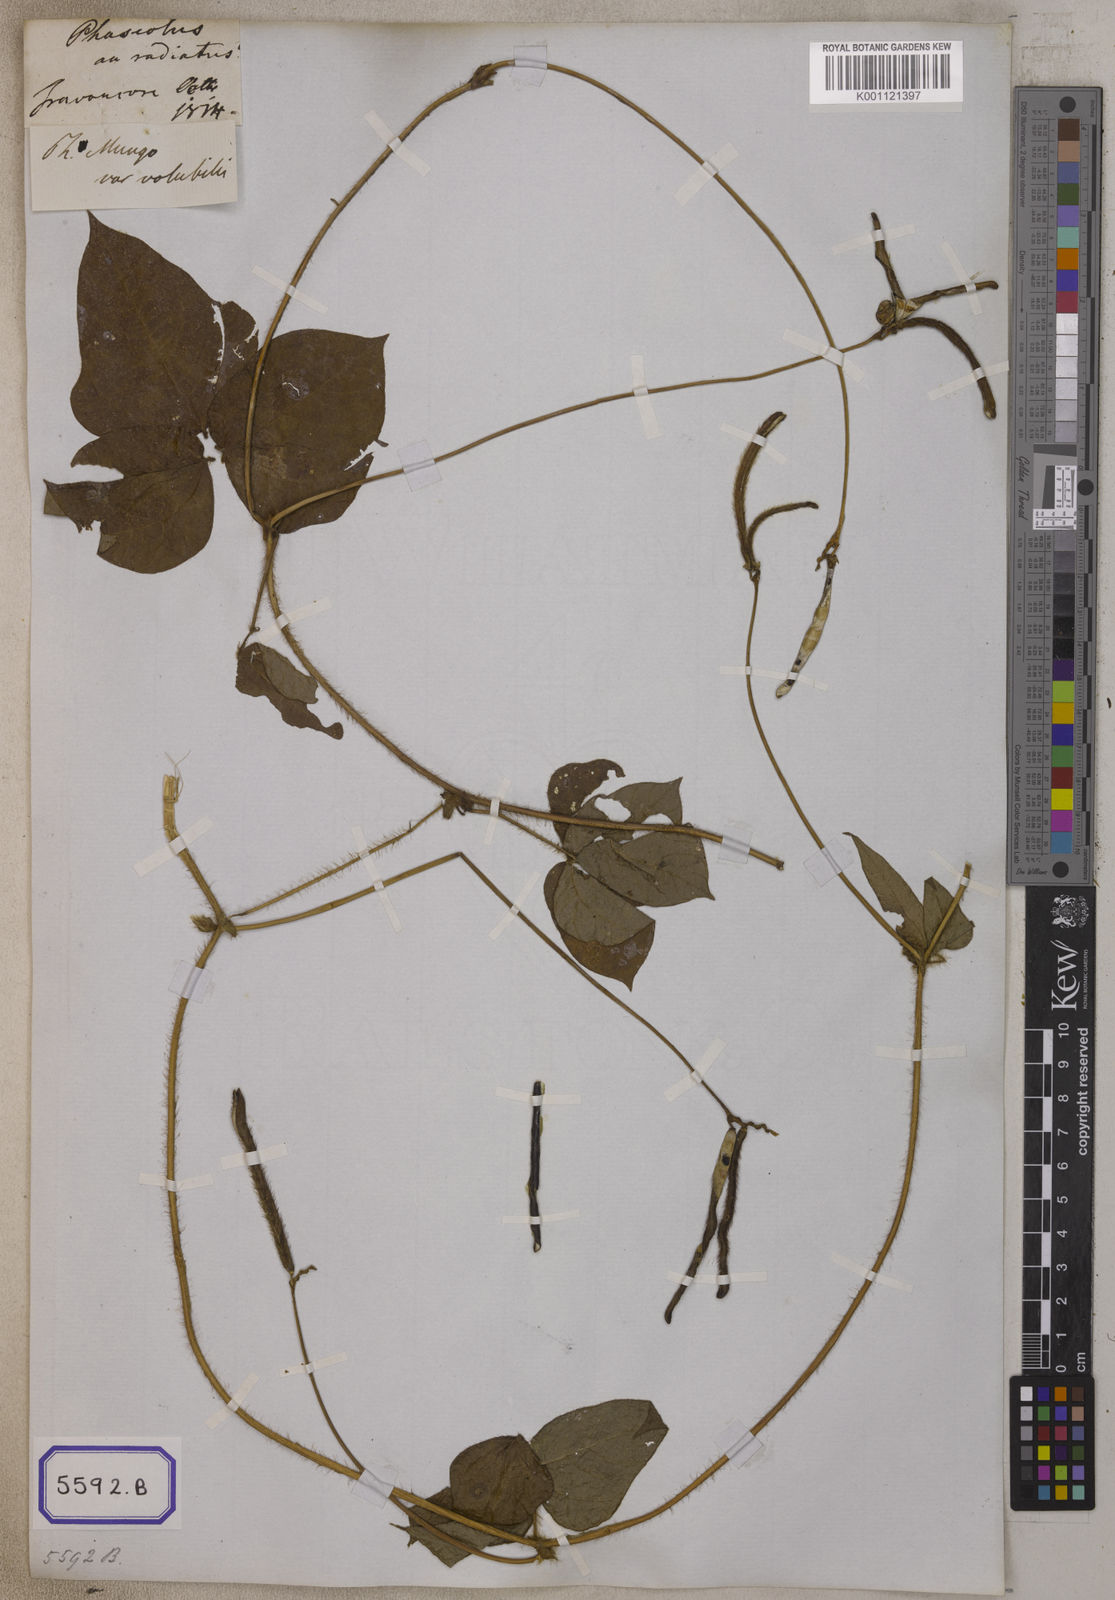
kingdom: Plantae
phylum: Tracheophyta
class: Magnoliopsida
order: Fabales
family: Fabaceae
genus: Vigna
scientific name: Vigna radiata
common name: Mung-bean
